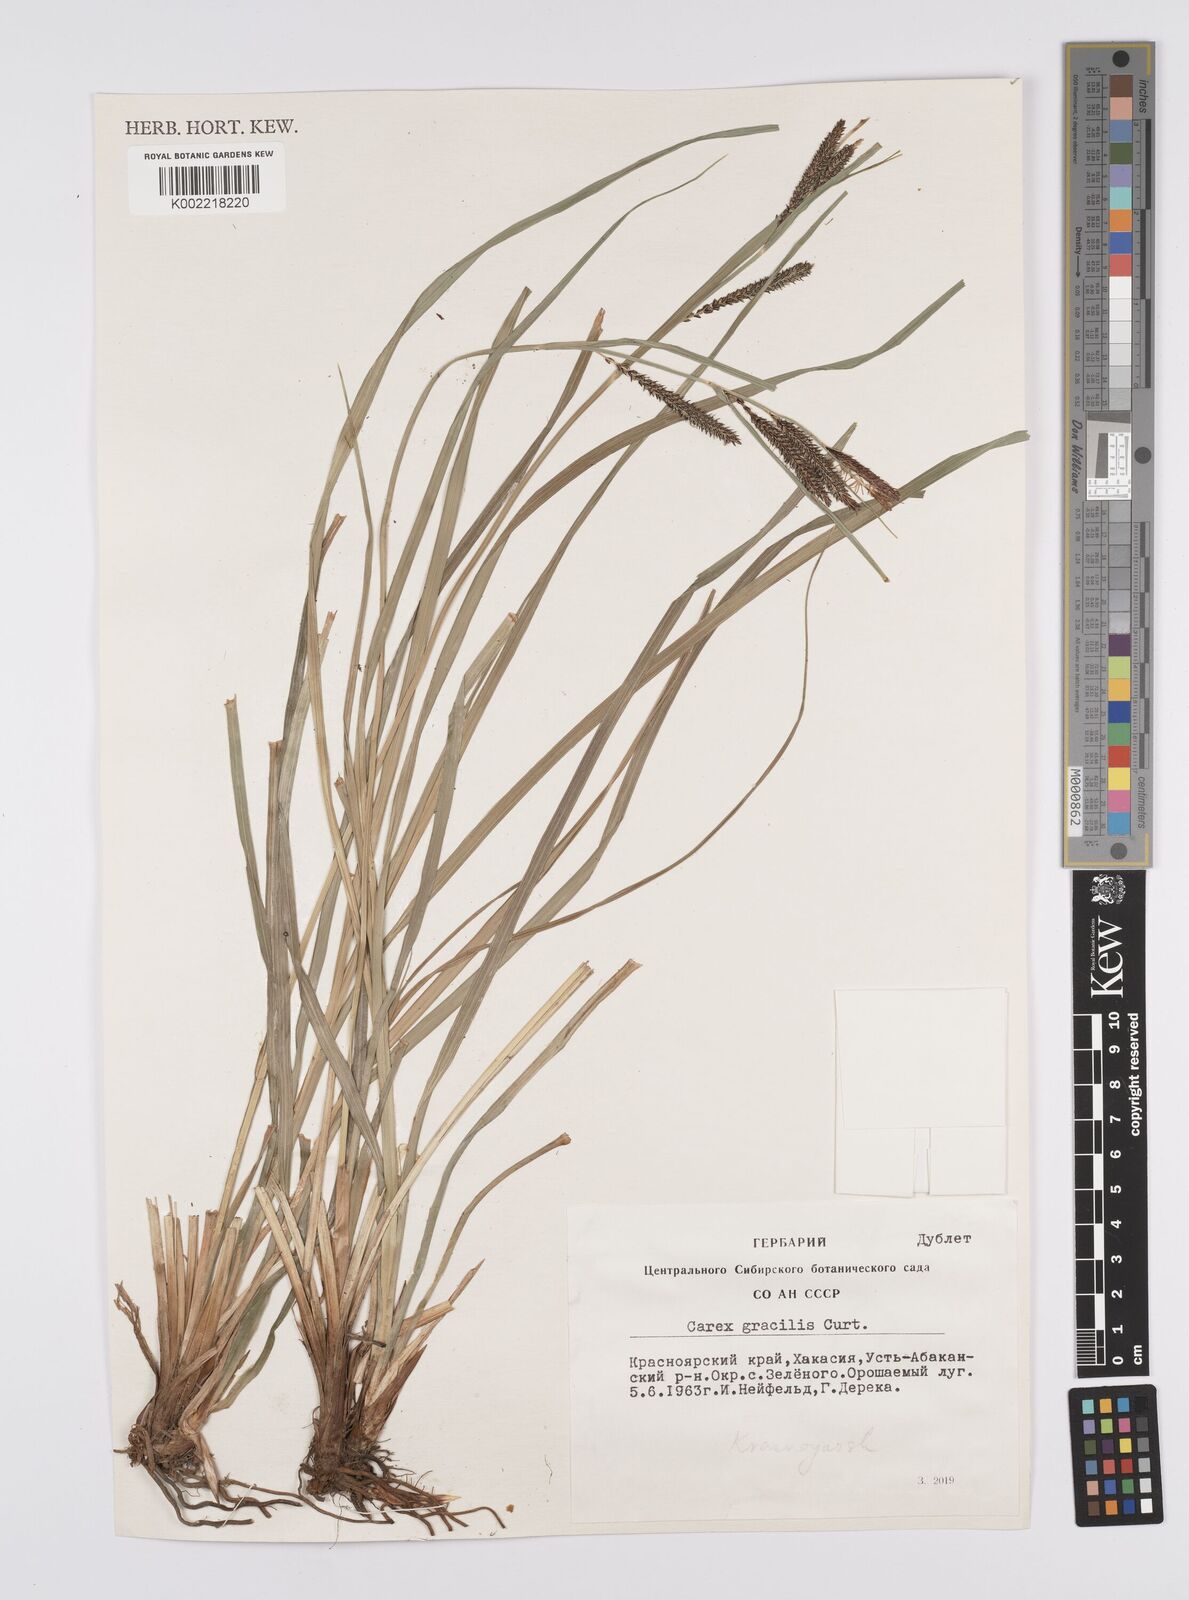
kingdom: Plantae
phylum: Tracheophyta
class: Liliopsida
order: Poales
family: Cyperaceae
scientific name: Cyperaceae
